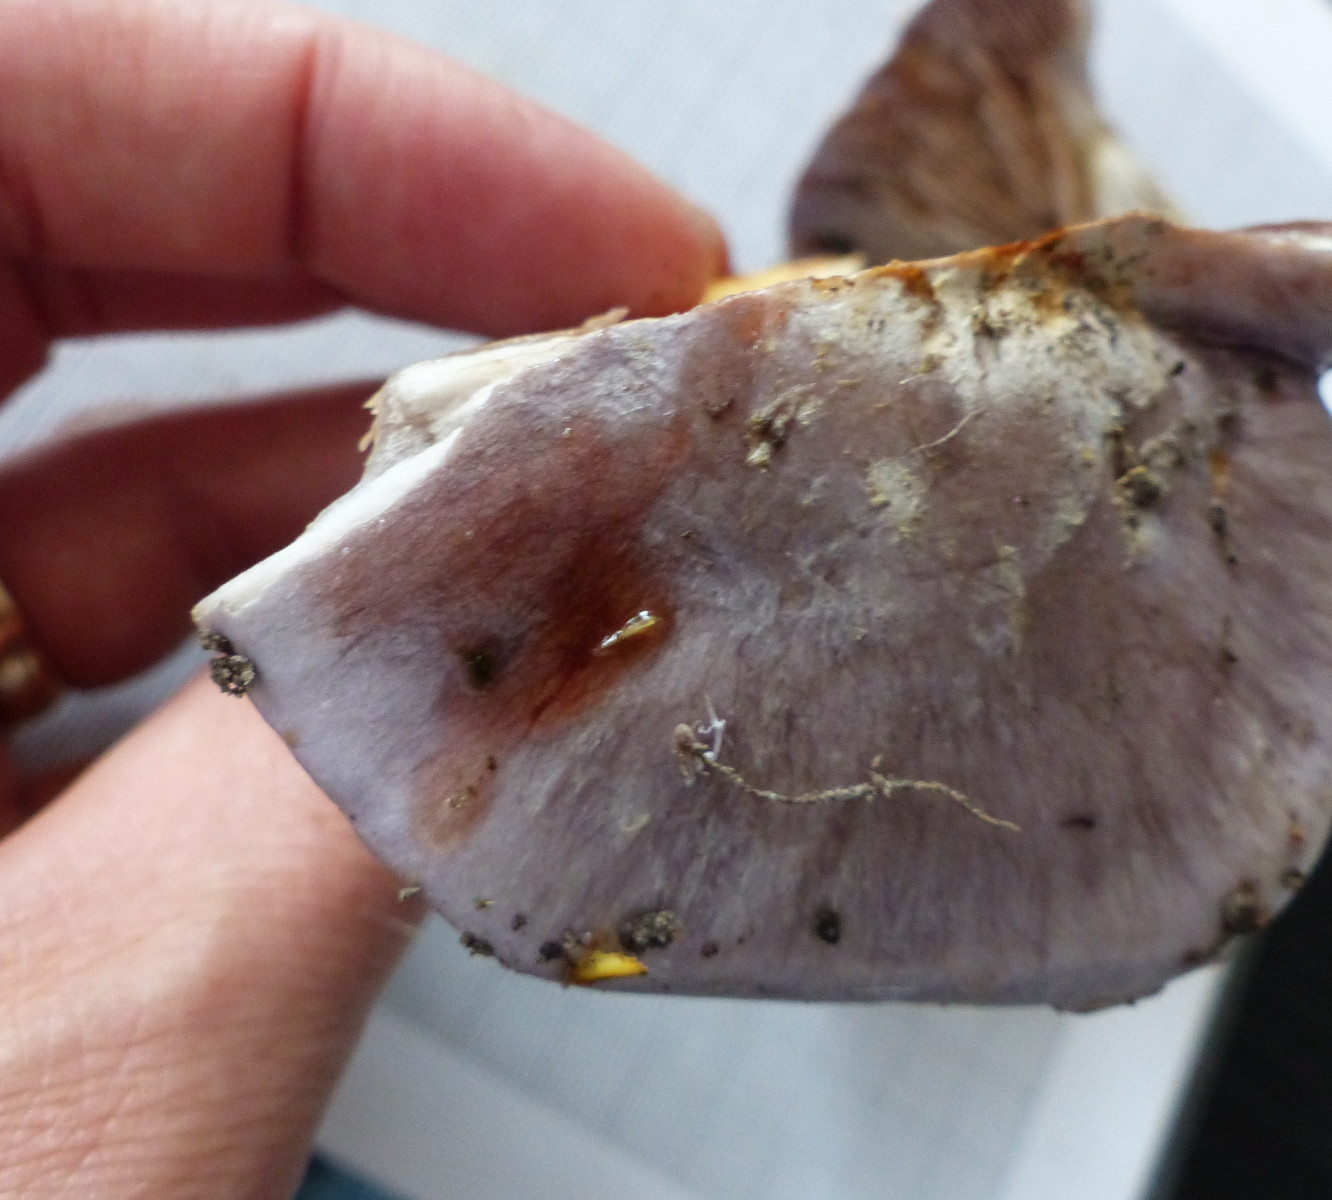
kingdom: Fungi
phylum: Basidiomycota
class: Agaricomycetes
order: Agaricales
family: Cortinariaceae
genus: Cortinarius
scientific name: Cortinarius caerulescens
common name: blåkødet slørhat
